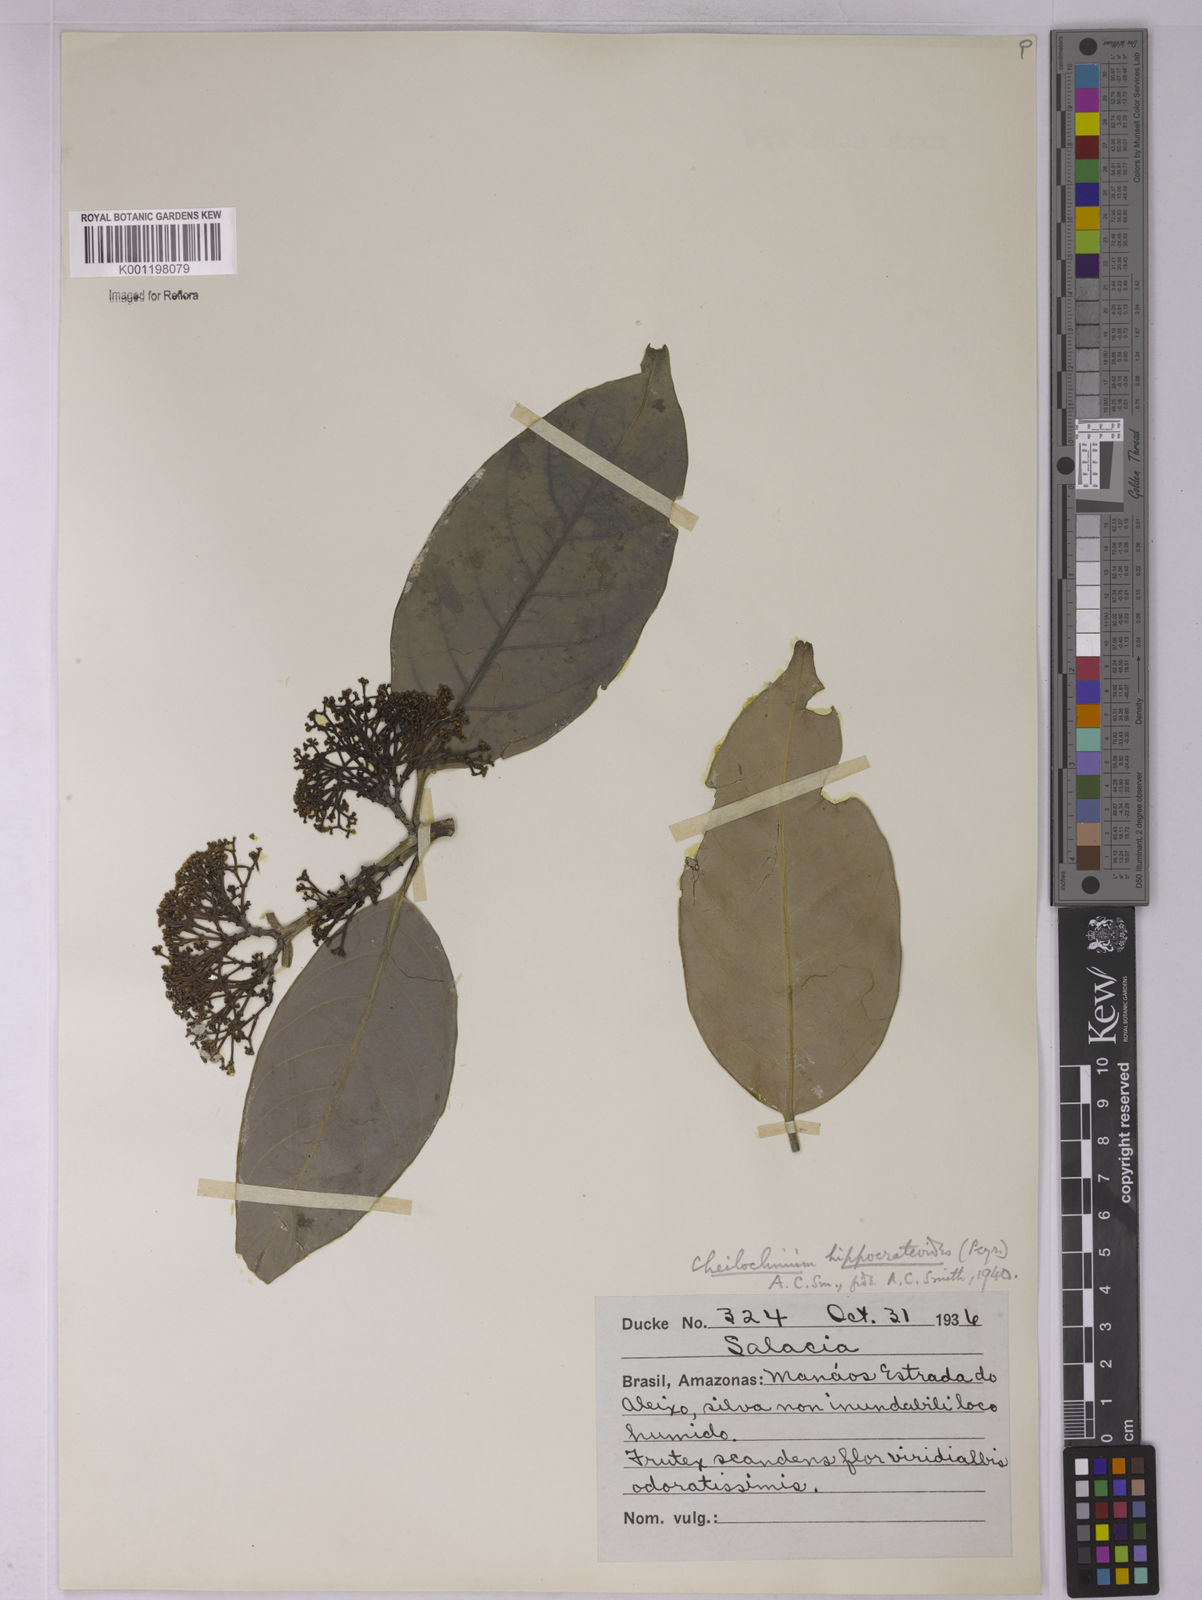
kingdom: Plantae
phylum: Tracheophyta
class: Magnoliopsida
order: Celastrales
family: Celastraceae
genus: Cheiloclinium
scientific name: Cheiloclinium hippocrateoides
